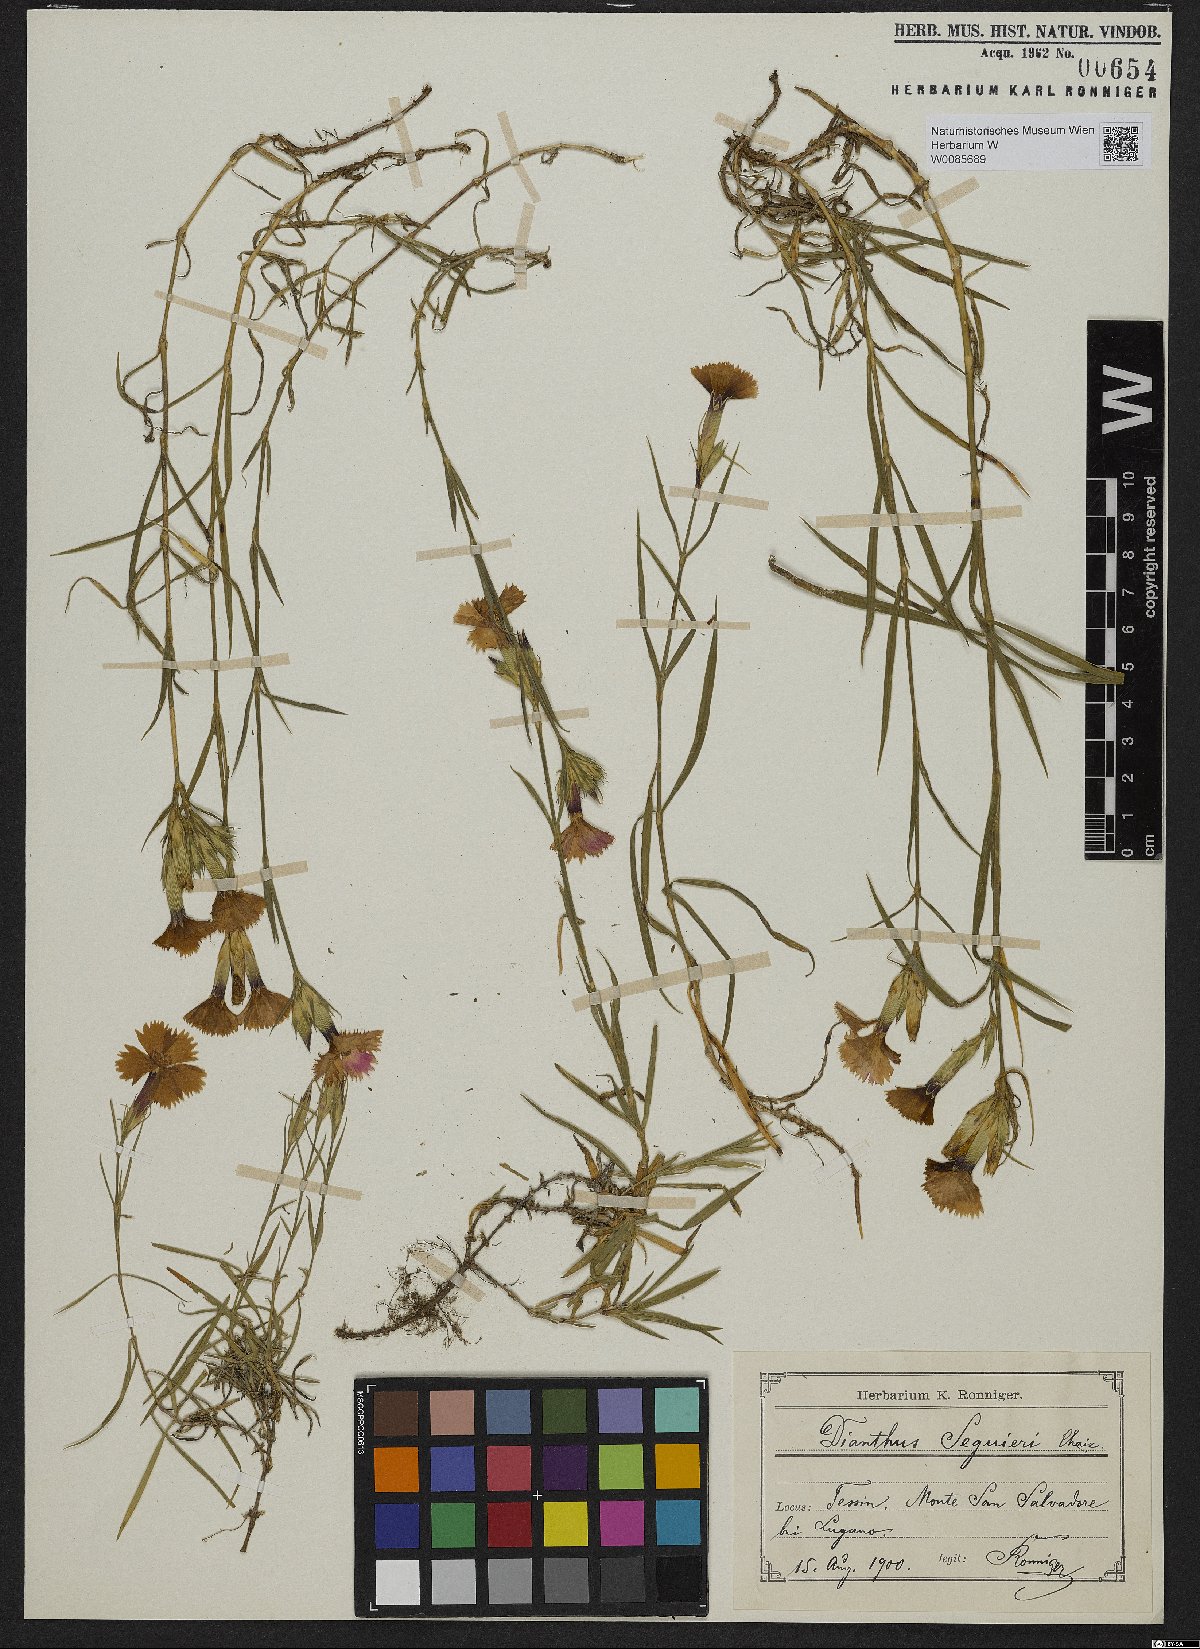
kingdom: Plantae
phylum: Tracheophyta
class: Magnoliopsida
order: Caryophyllales
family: Caryophyllaceae
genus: Dianthus
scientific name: Dianthus seguieri
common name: Ragged pink
